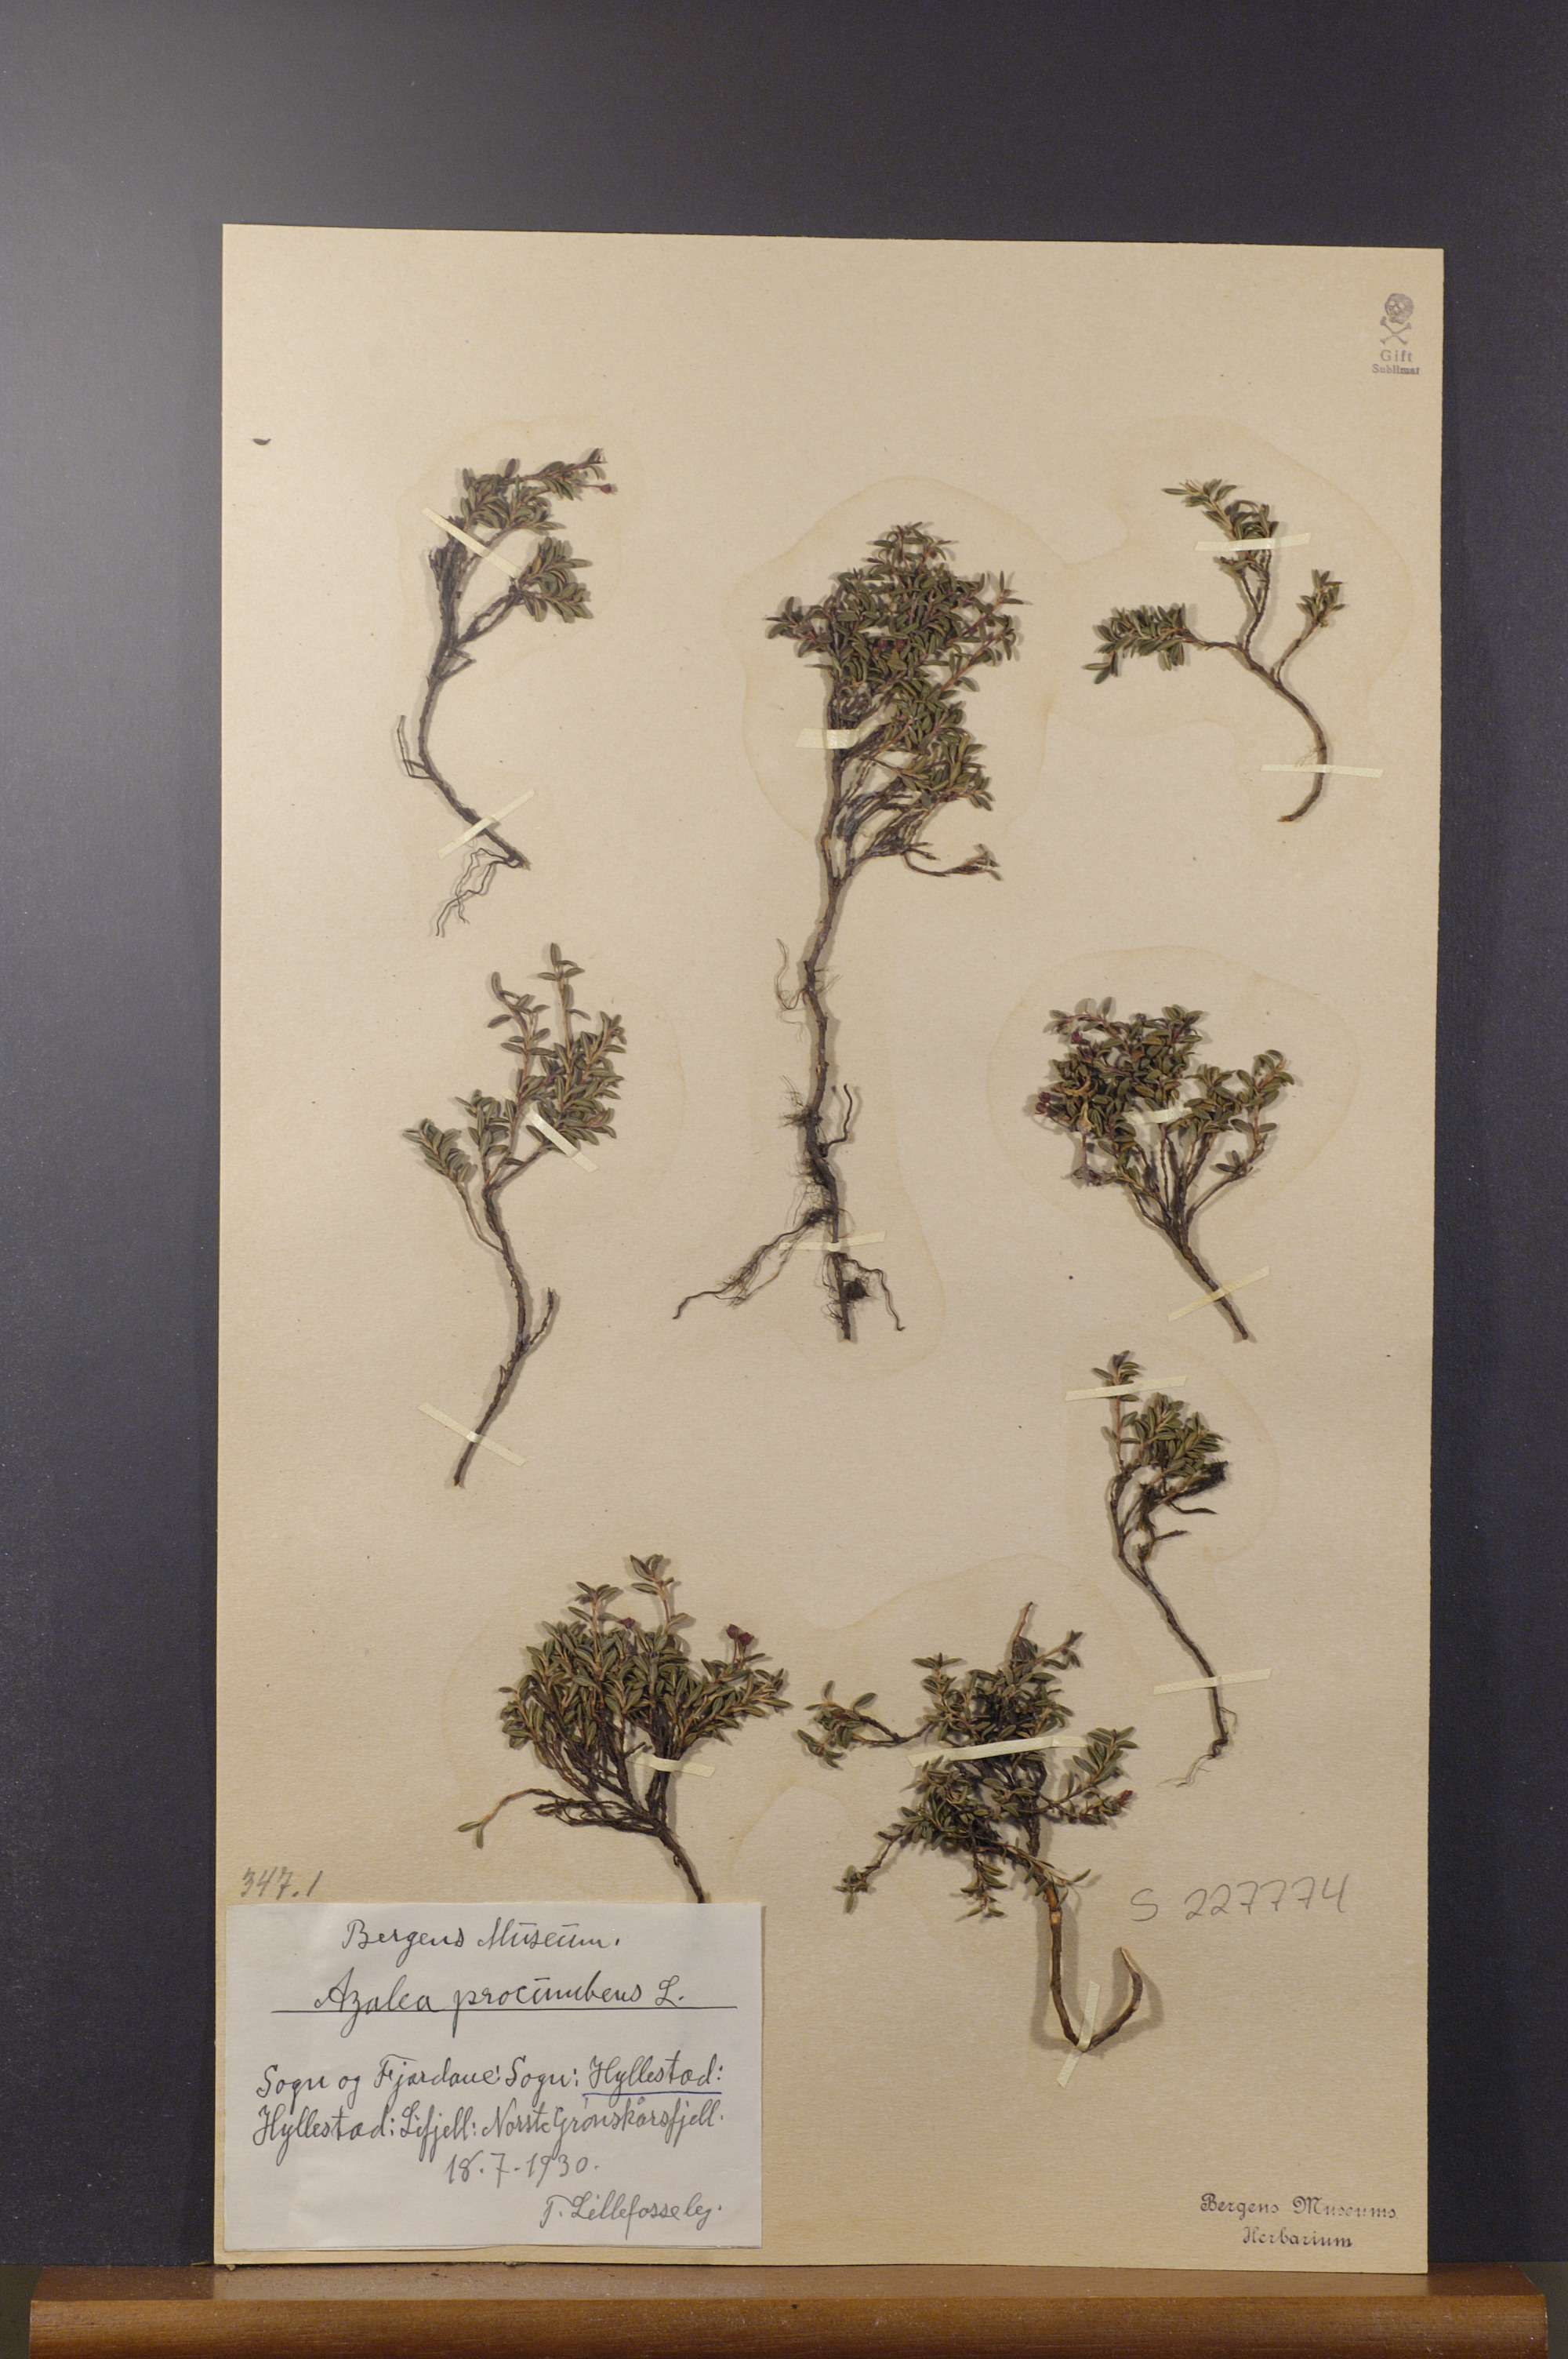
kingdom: Plantae
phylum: Tracheophyta
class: Magnoliopsida
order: Ericales
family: Ericaceae
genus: Kalmia
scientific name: Kalmia procumbens
